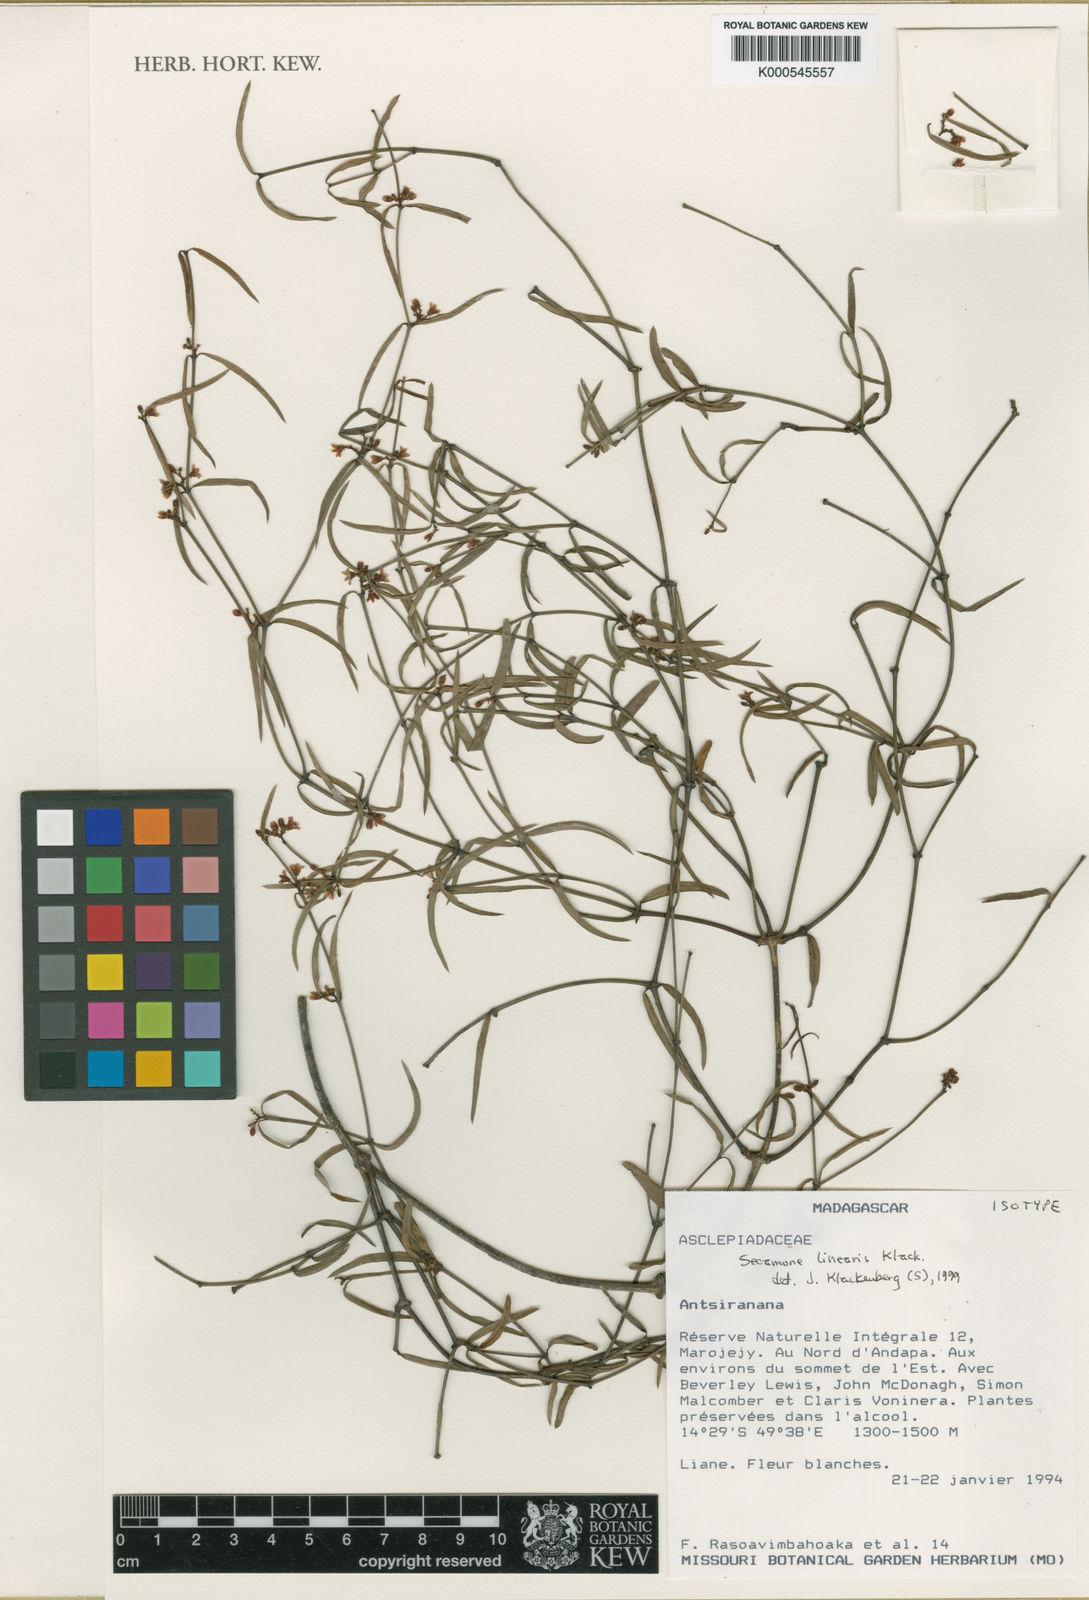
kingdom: Plantae
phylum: Tracheophyta
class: Magnoliopsida
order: Gentianales
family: Apocynaceae
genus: Secamone
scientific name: Secamone linearis
